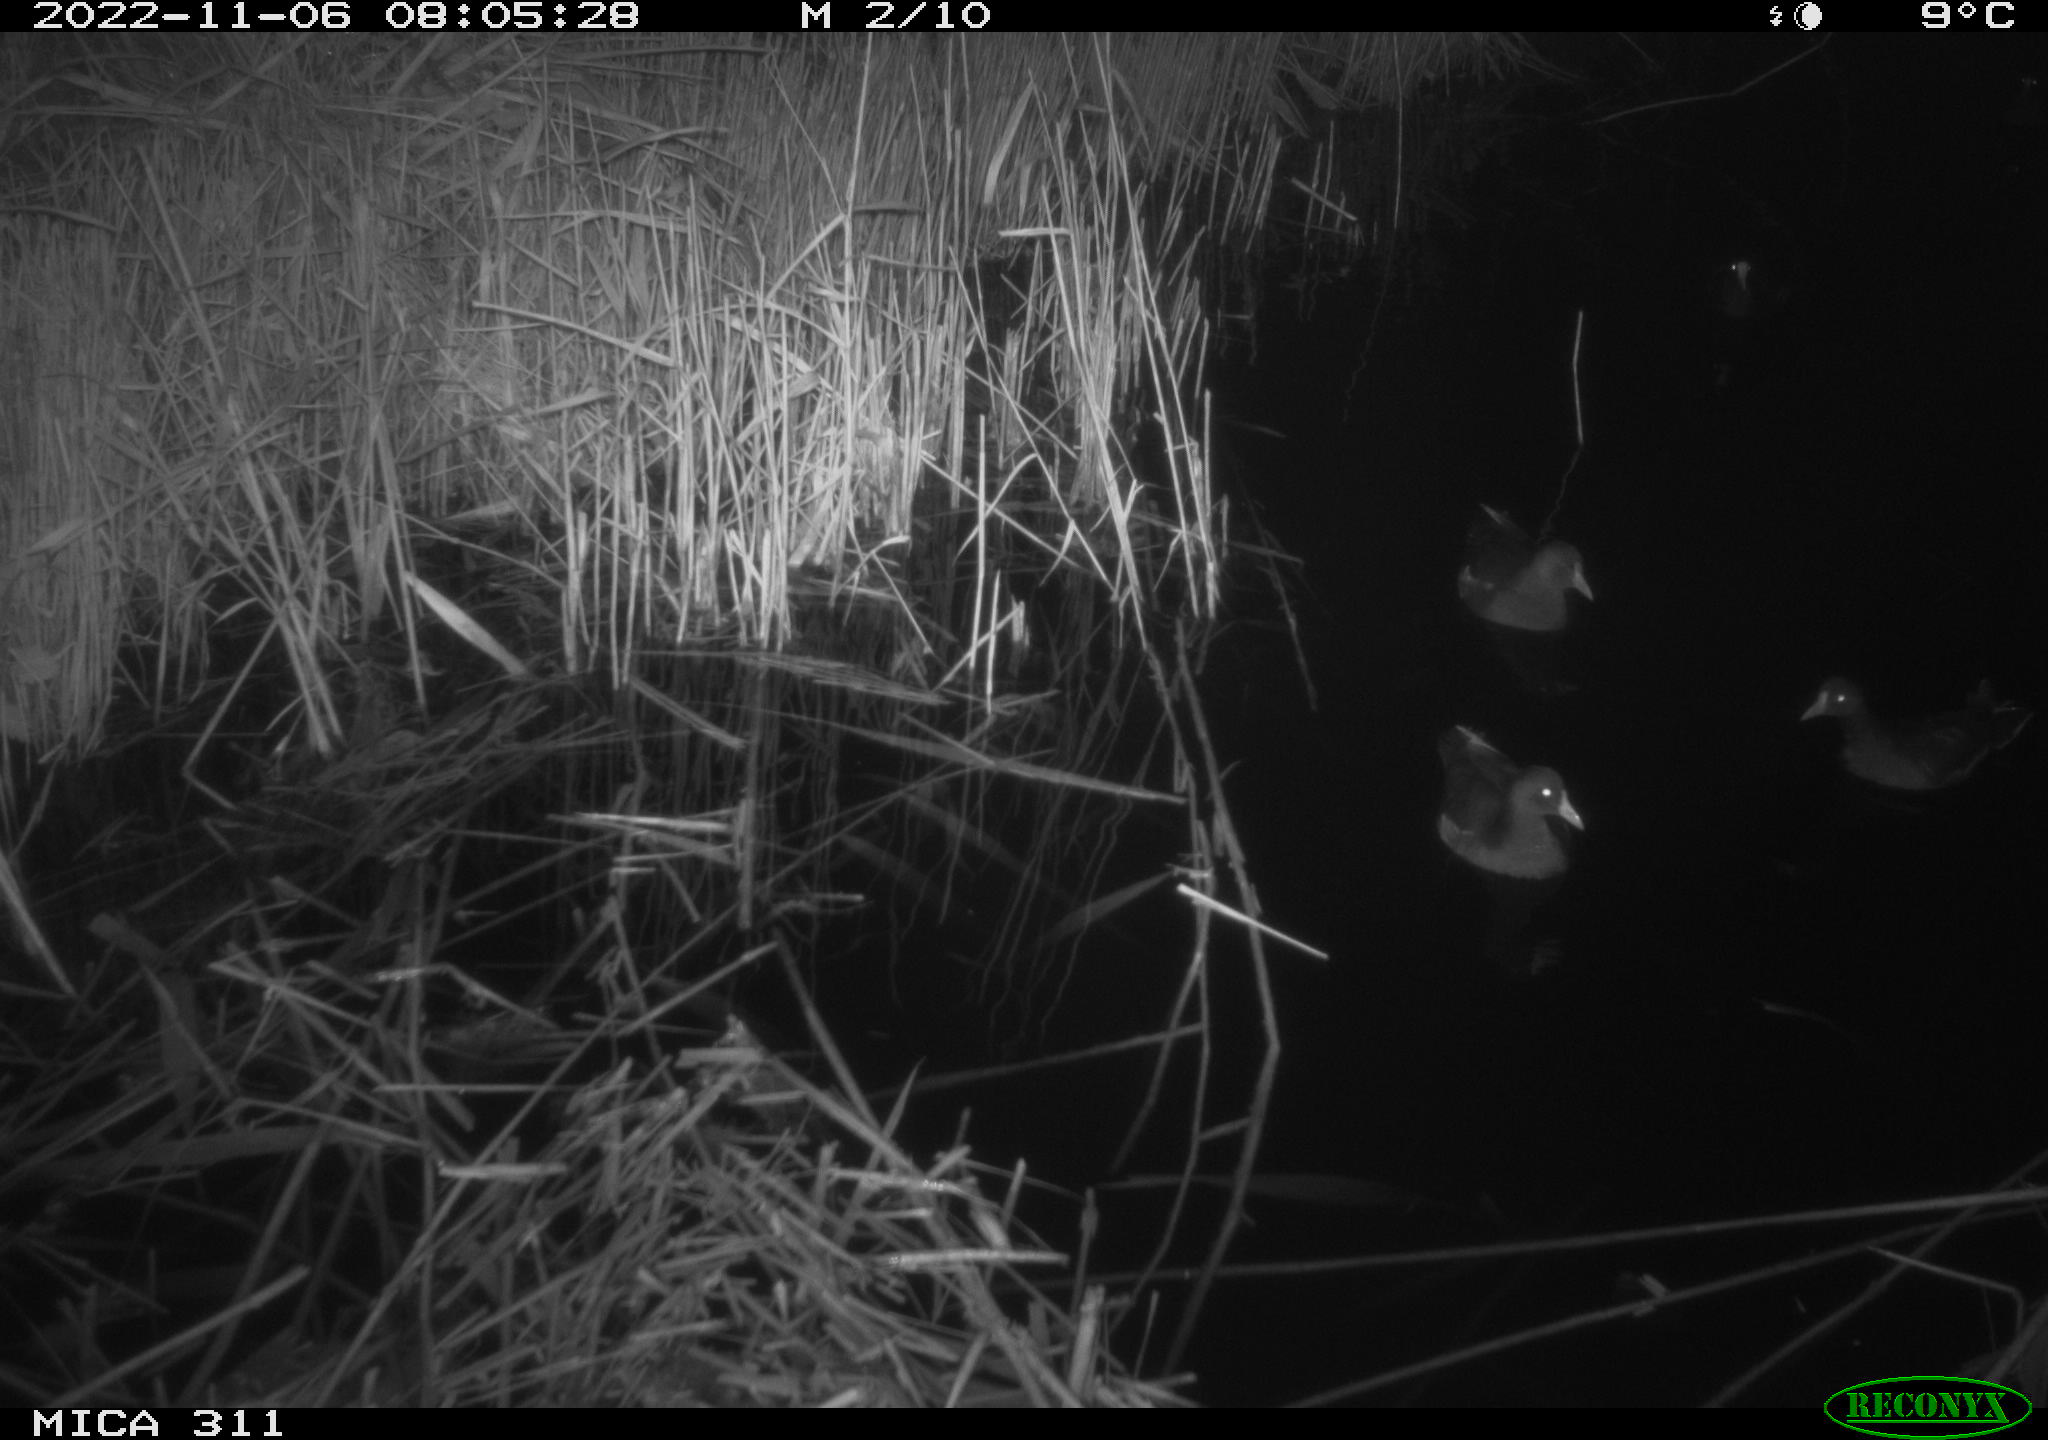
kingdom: Animalia
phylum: Chordata
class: Aves
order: Gruiformes
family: Rallidae
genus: Fulica
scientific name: Fulica atra
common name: Eurasian coot
